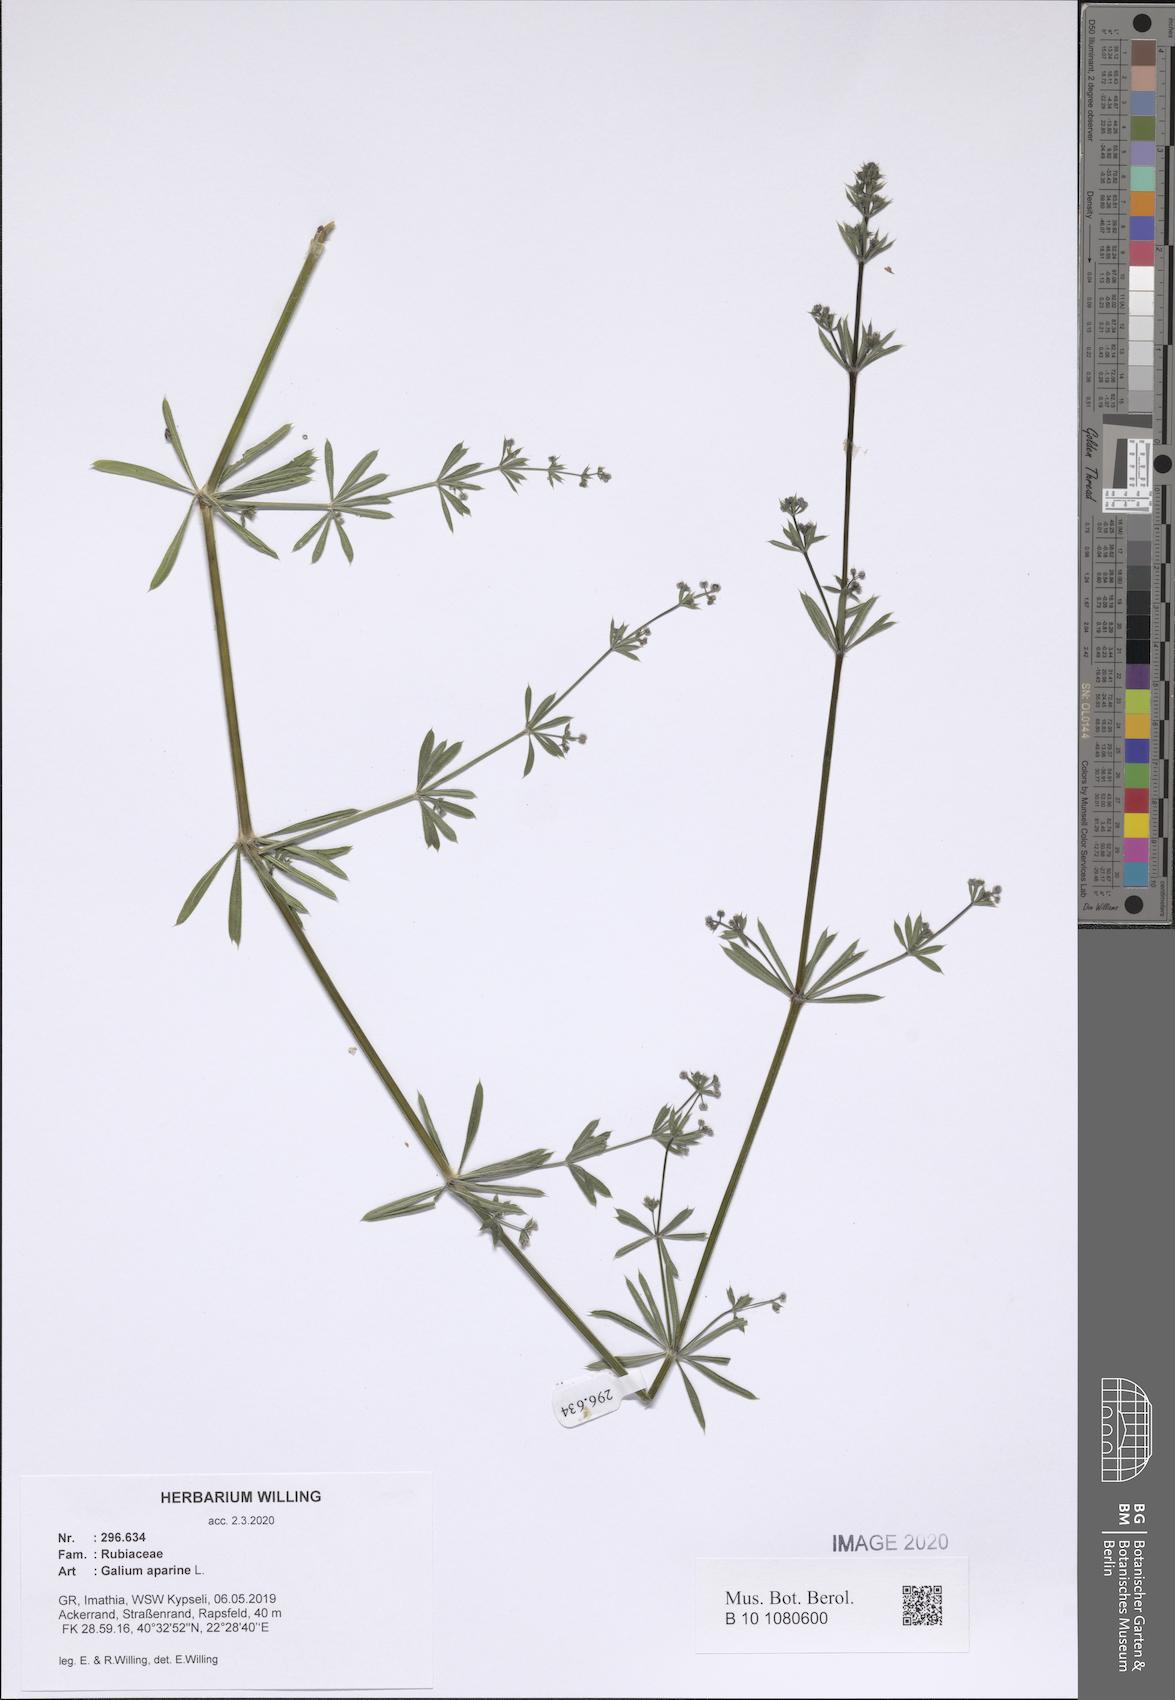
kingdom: Plantae
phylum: Tracheophyta
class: Magnoliopsida
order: Gentianales
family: Rubiaceae
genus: Galium
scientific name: Galium aparine
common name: Cleavers
